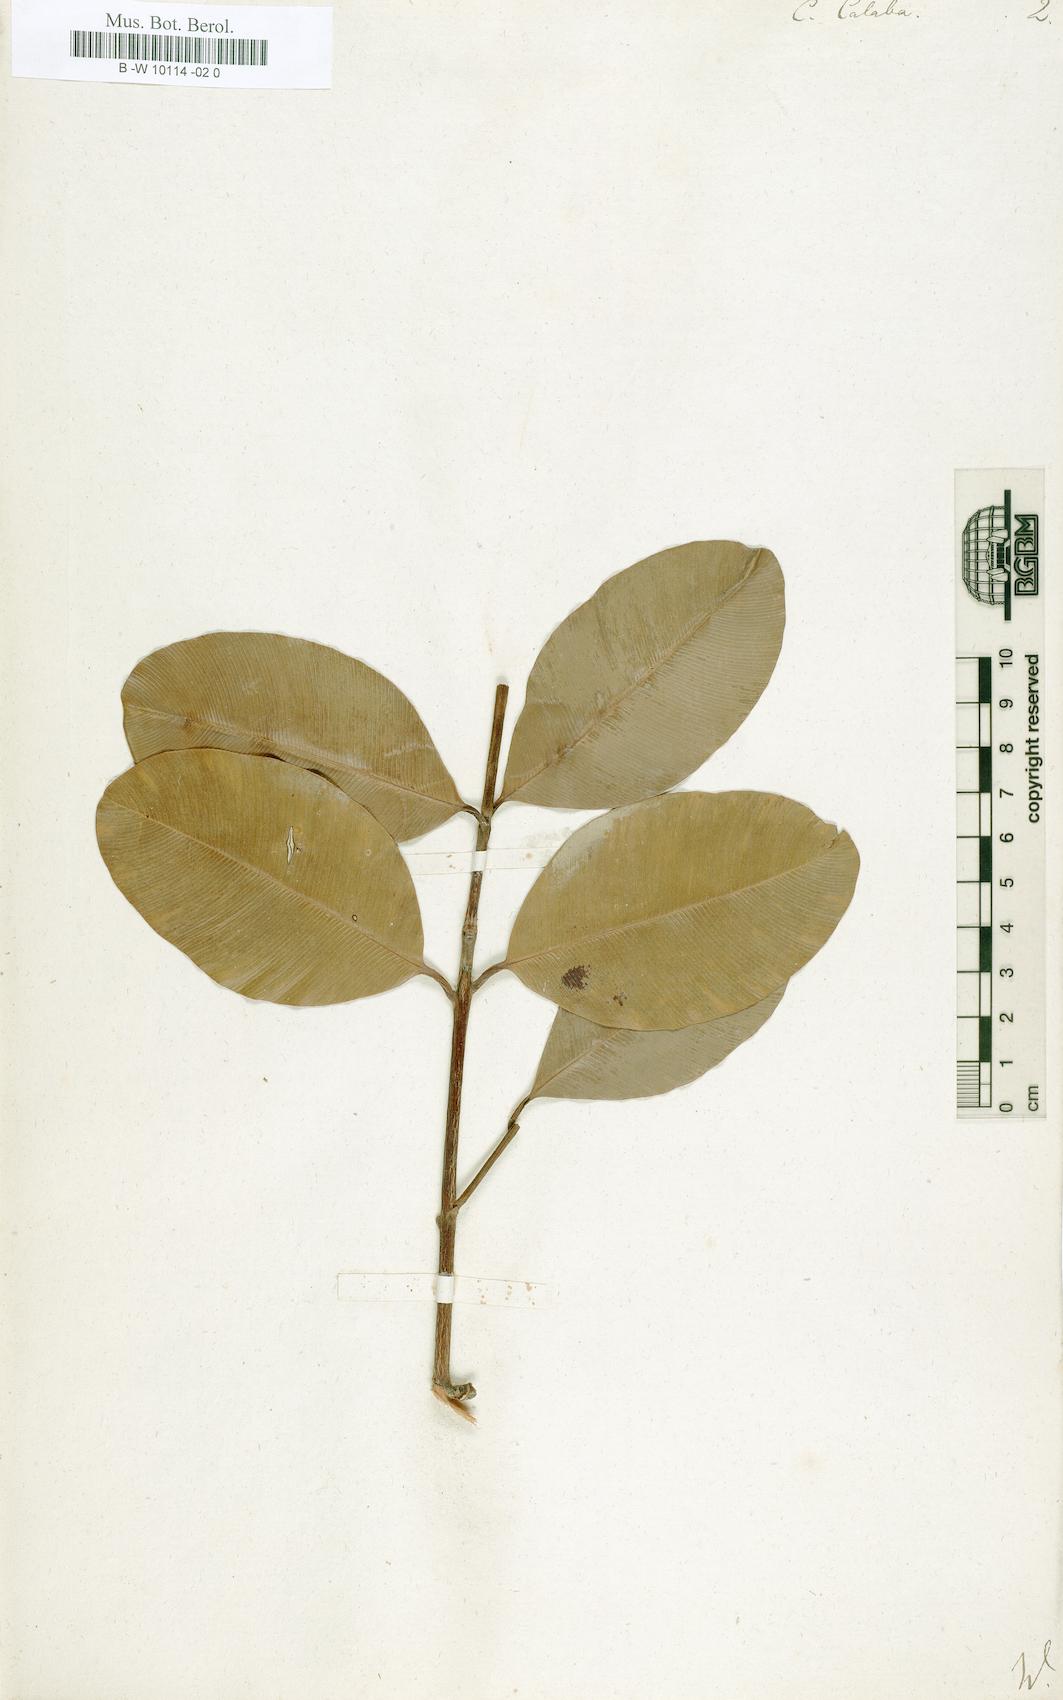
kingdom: Plantae
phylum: Tracheophyta
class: Magnoliopsida
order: Malpighiales
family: Calophyllaceae
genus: Calophyllum
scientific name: Calophyllum calaba
